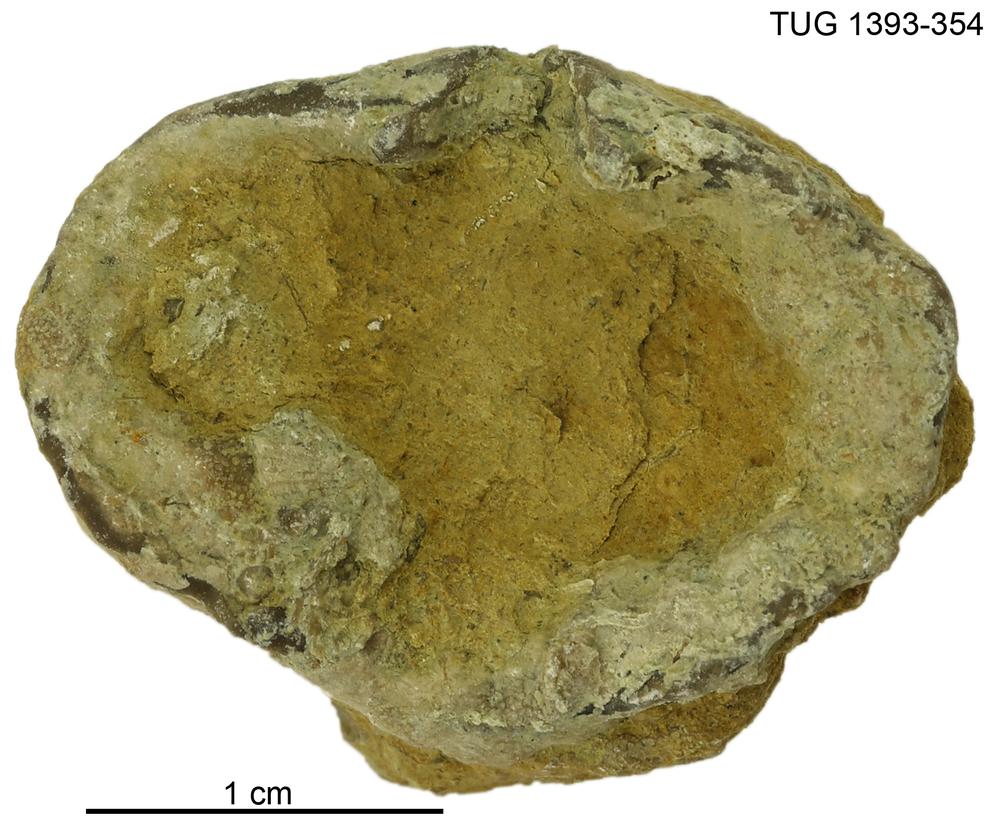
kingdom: Animalia
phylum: Bryozoa
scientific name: Bryozoa
